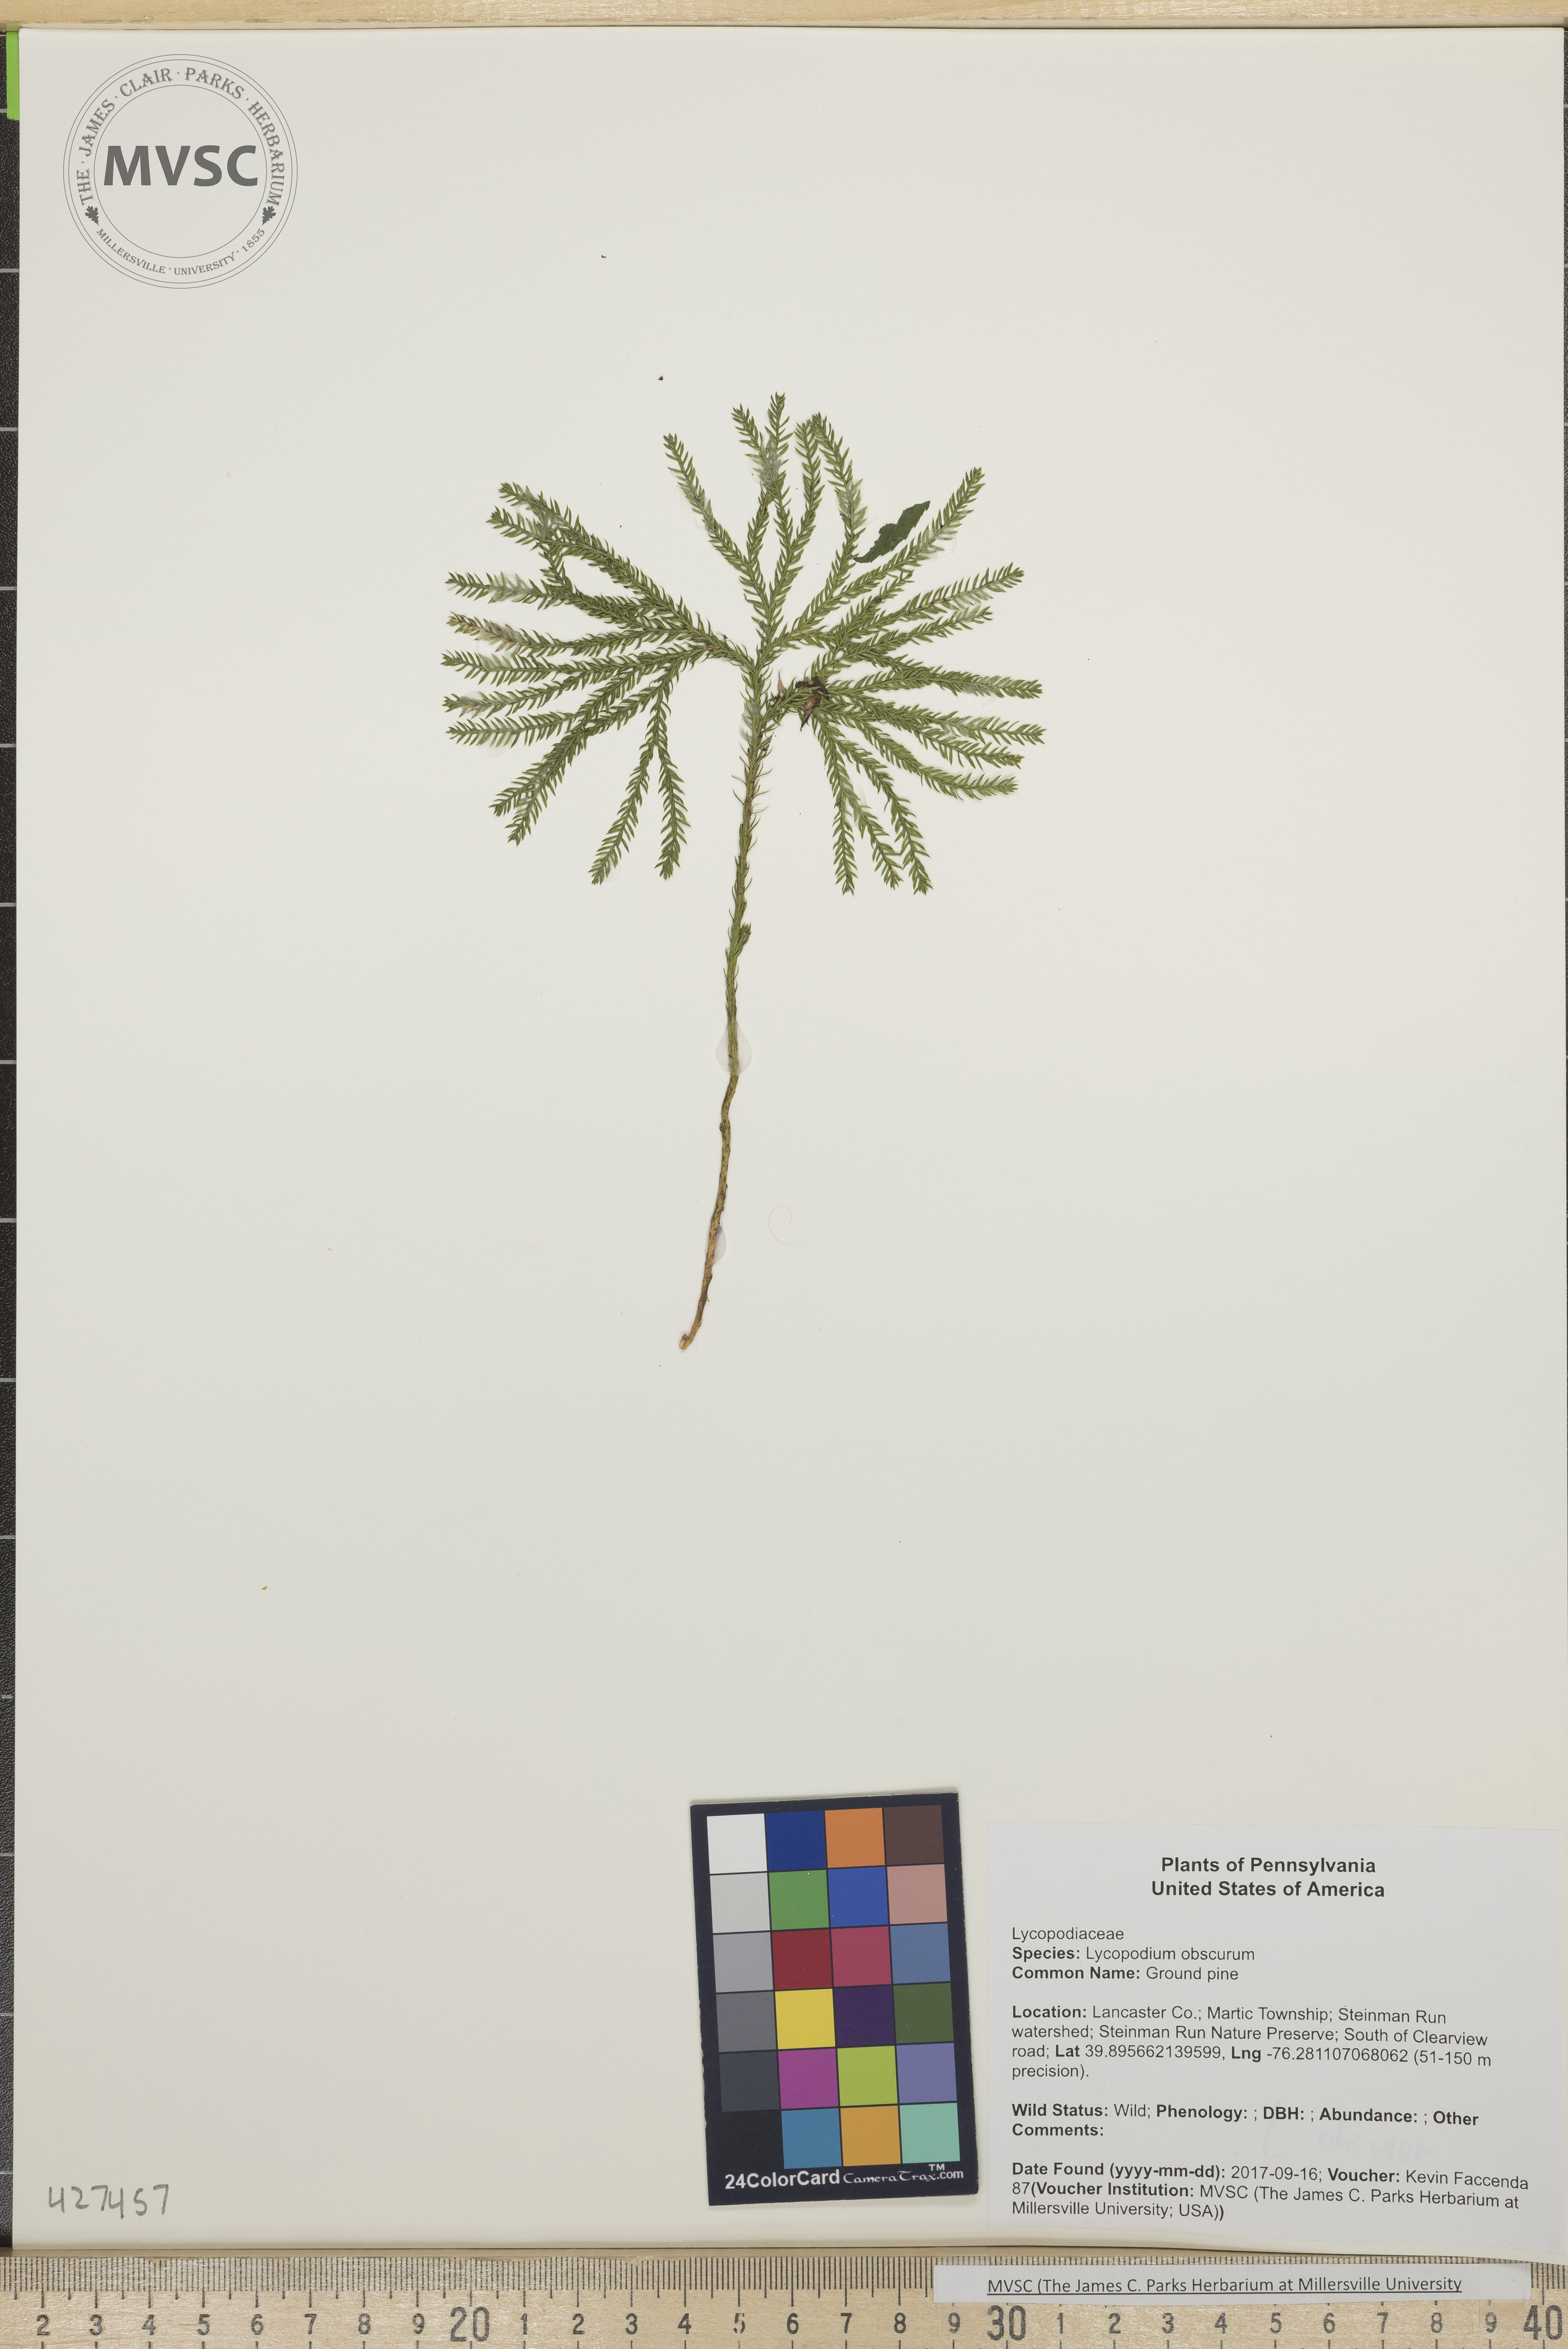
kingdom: Plantae
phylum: Tracheophyta
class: Lycopodiopsida
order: Lycopodiales
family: Lycopodiaceae
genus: Dendrolycopodium
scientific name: Dendrolycopodium obscurum
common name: Ground pine
